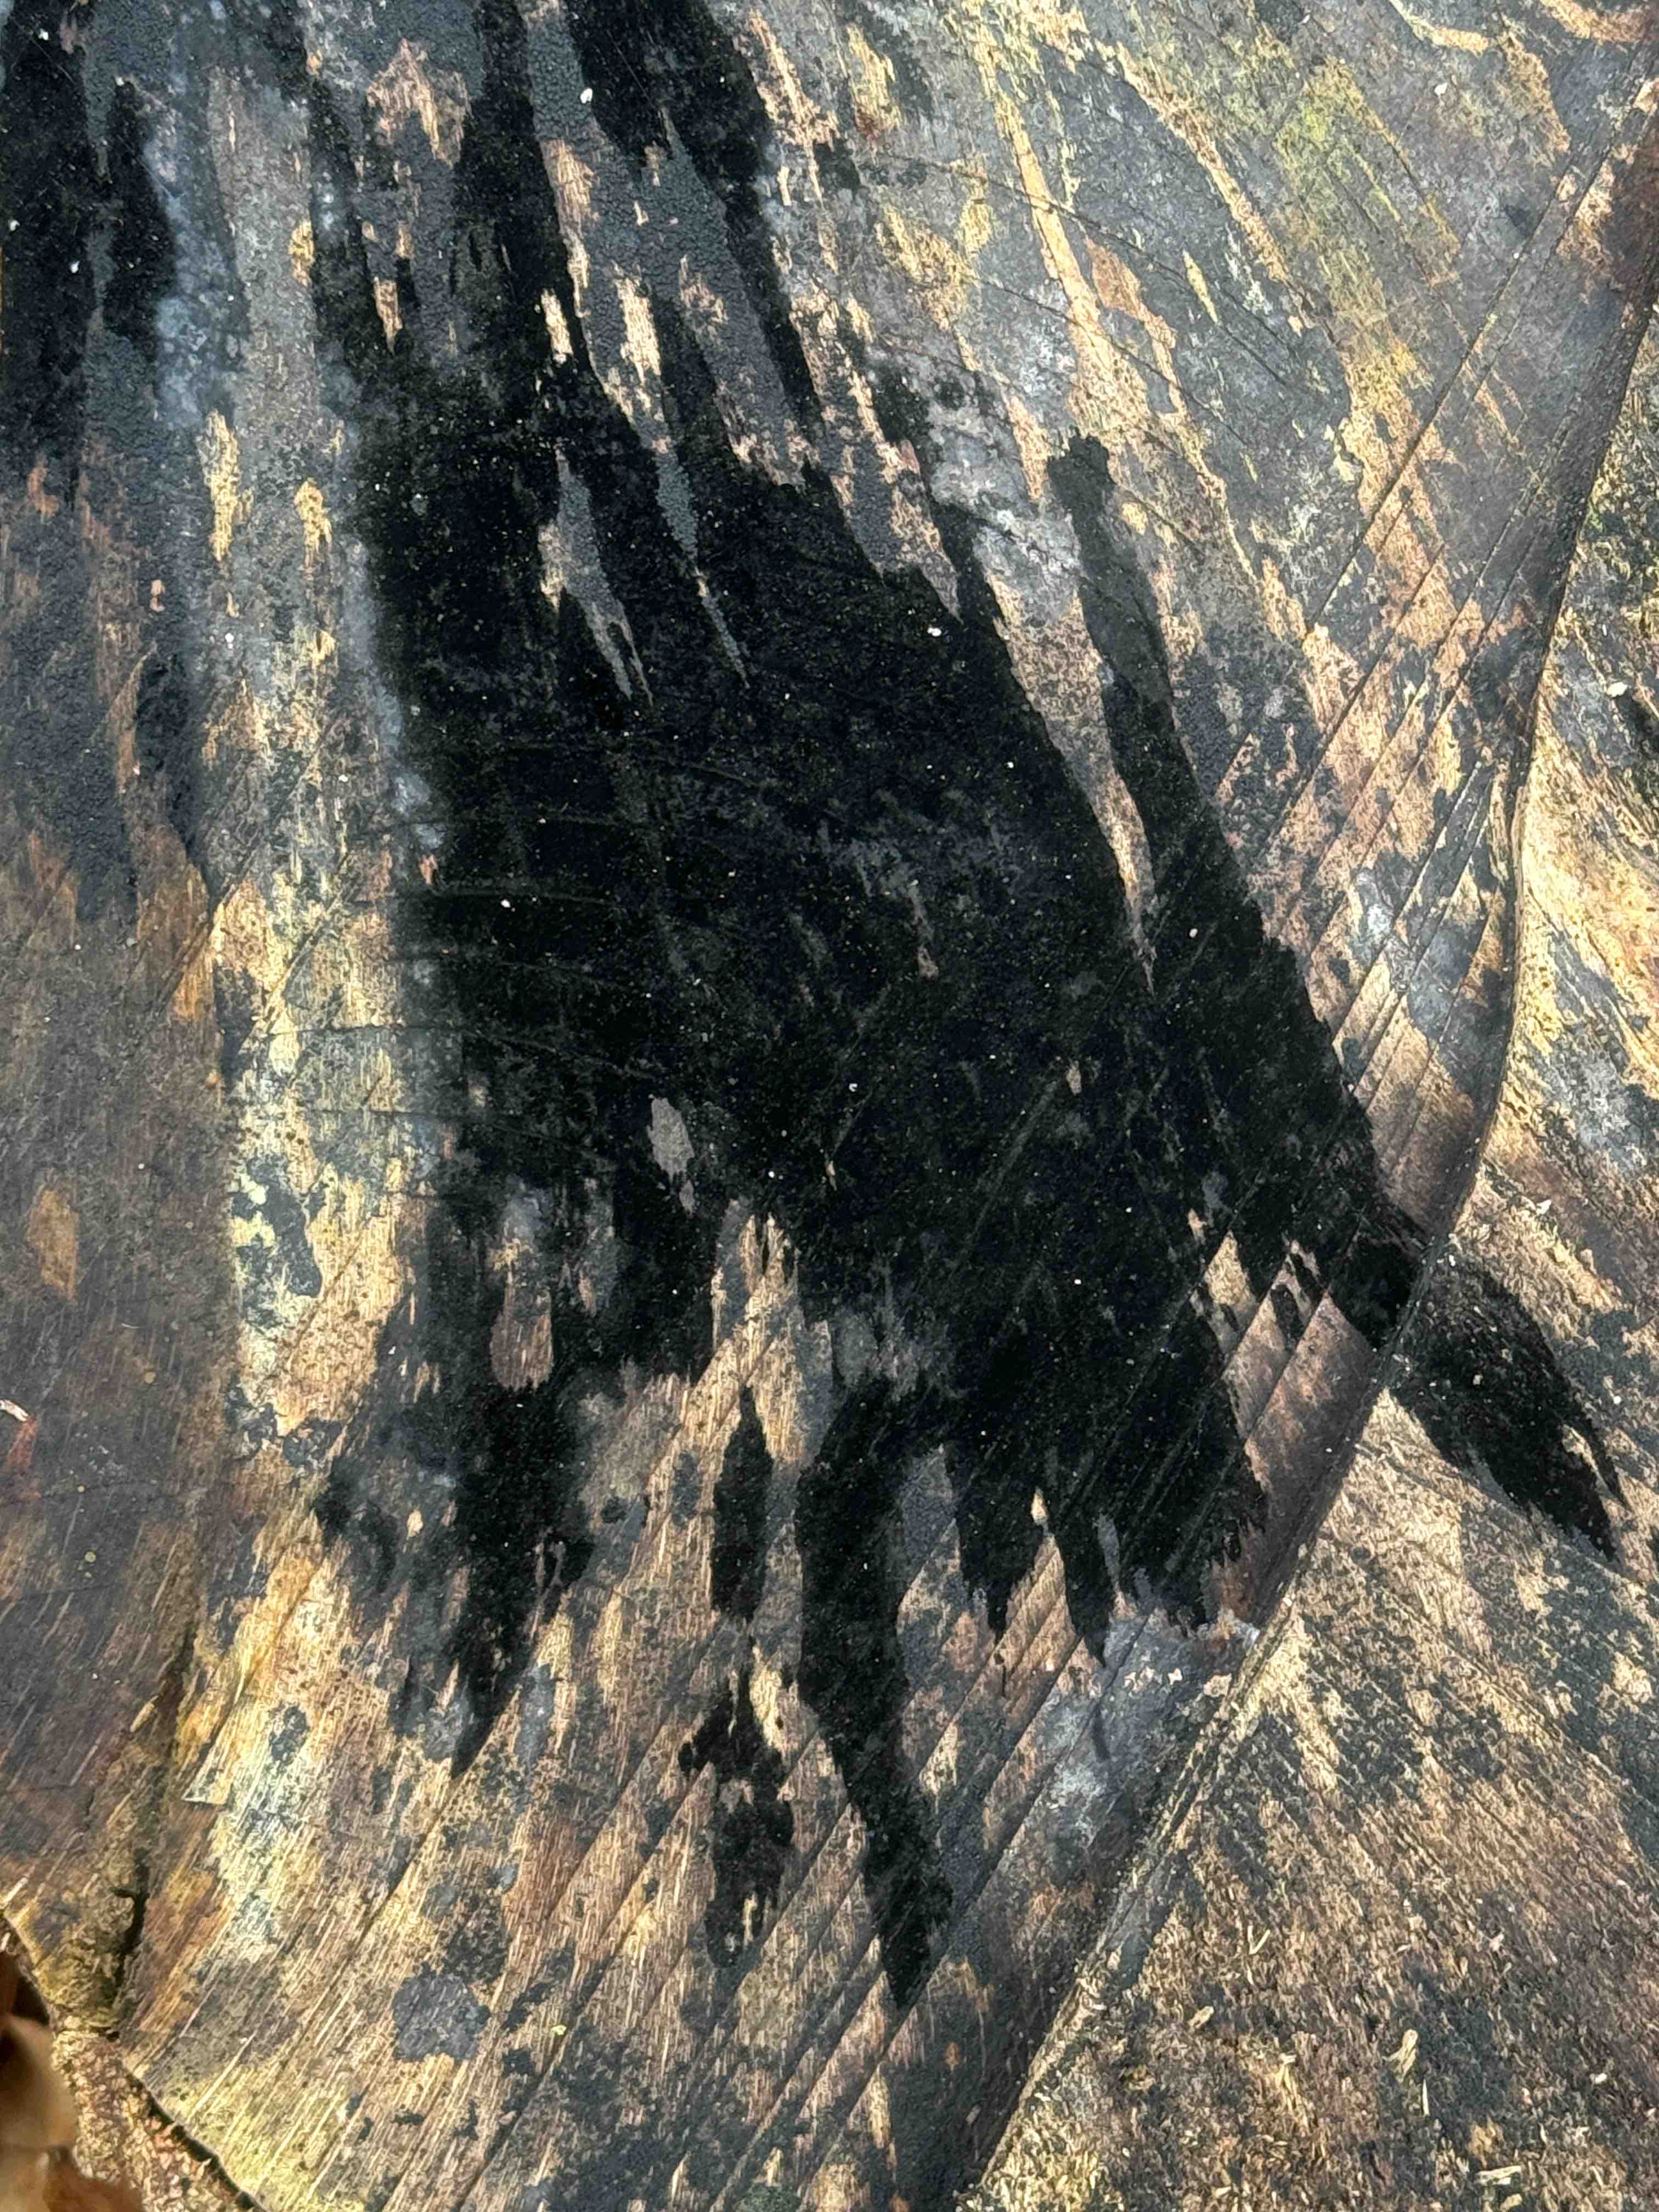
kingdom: Fungi
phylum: Ascomycota
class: Leotiomycetes
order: Helotiales
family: Helotiaceae
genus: Bispora
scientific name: Bispora pallescens
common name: måtte-snitskive
